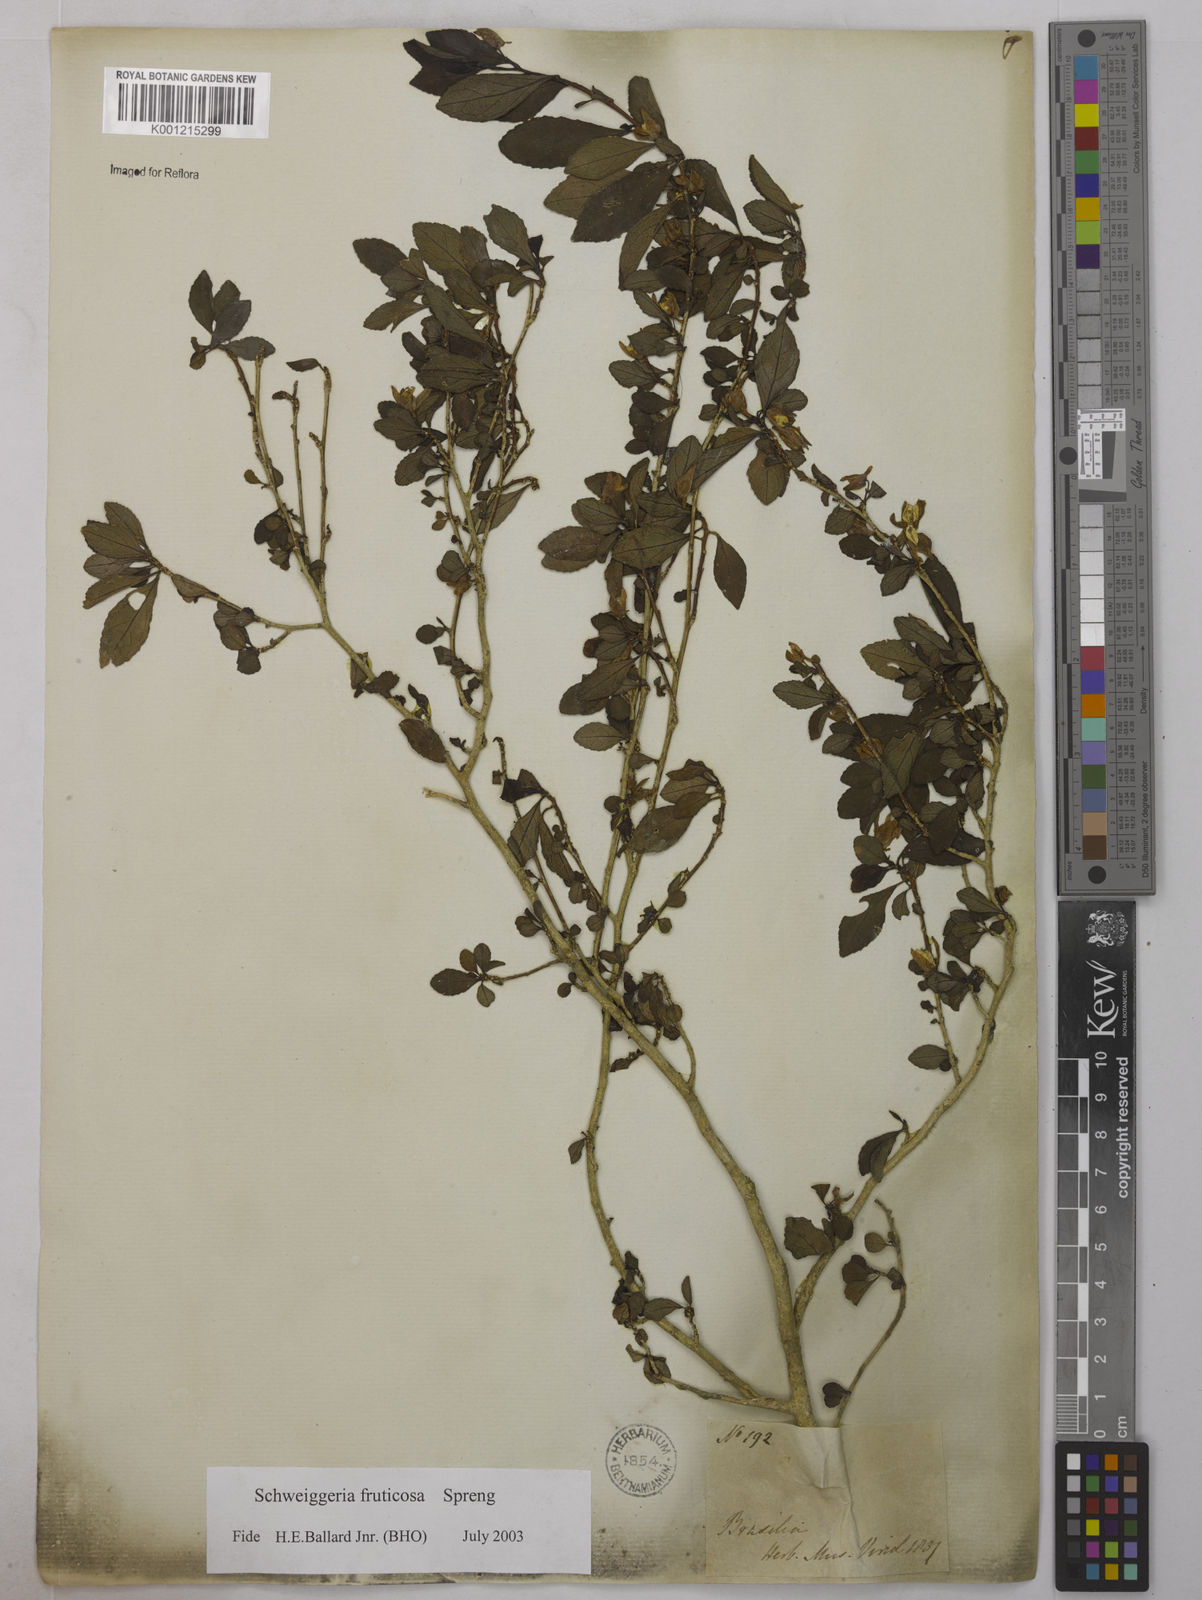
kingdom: Plantae
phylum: Tracheophyta
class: Magnoliopsida
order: Malpighiales
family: Violaceae
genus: Schweiggeria
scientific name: Schweiggeria fruticosa
